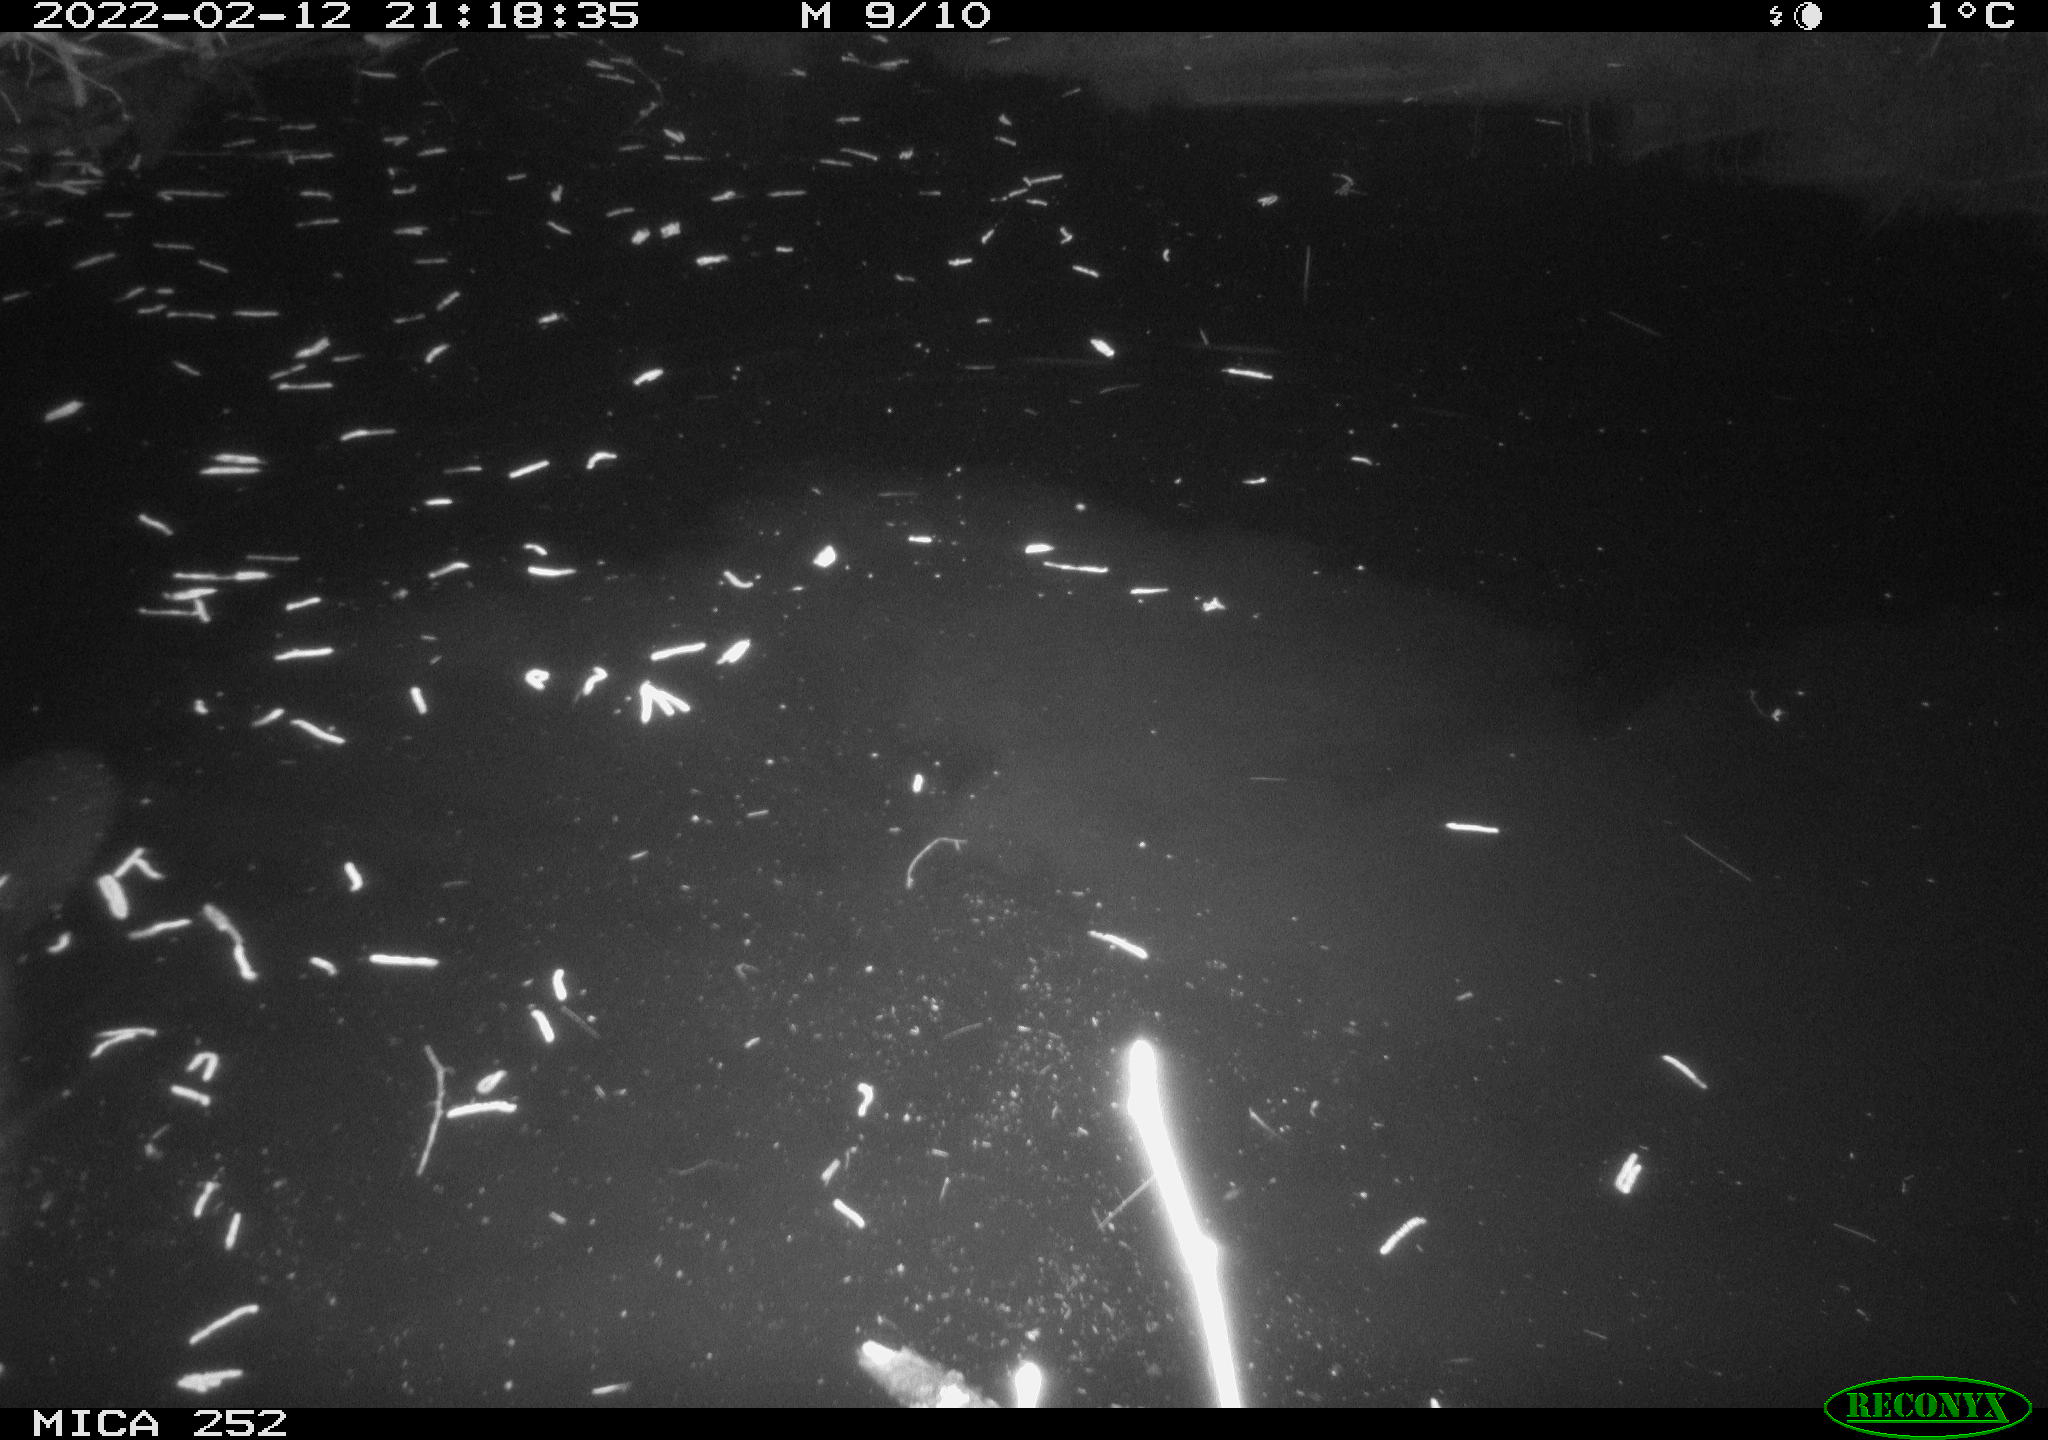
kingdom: Animalia
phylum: Chordata
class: Mammalia
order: Rodentia
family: Castoridae
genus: Castor
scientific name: Castor fiber
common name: Eurasian beaver
